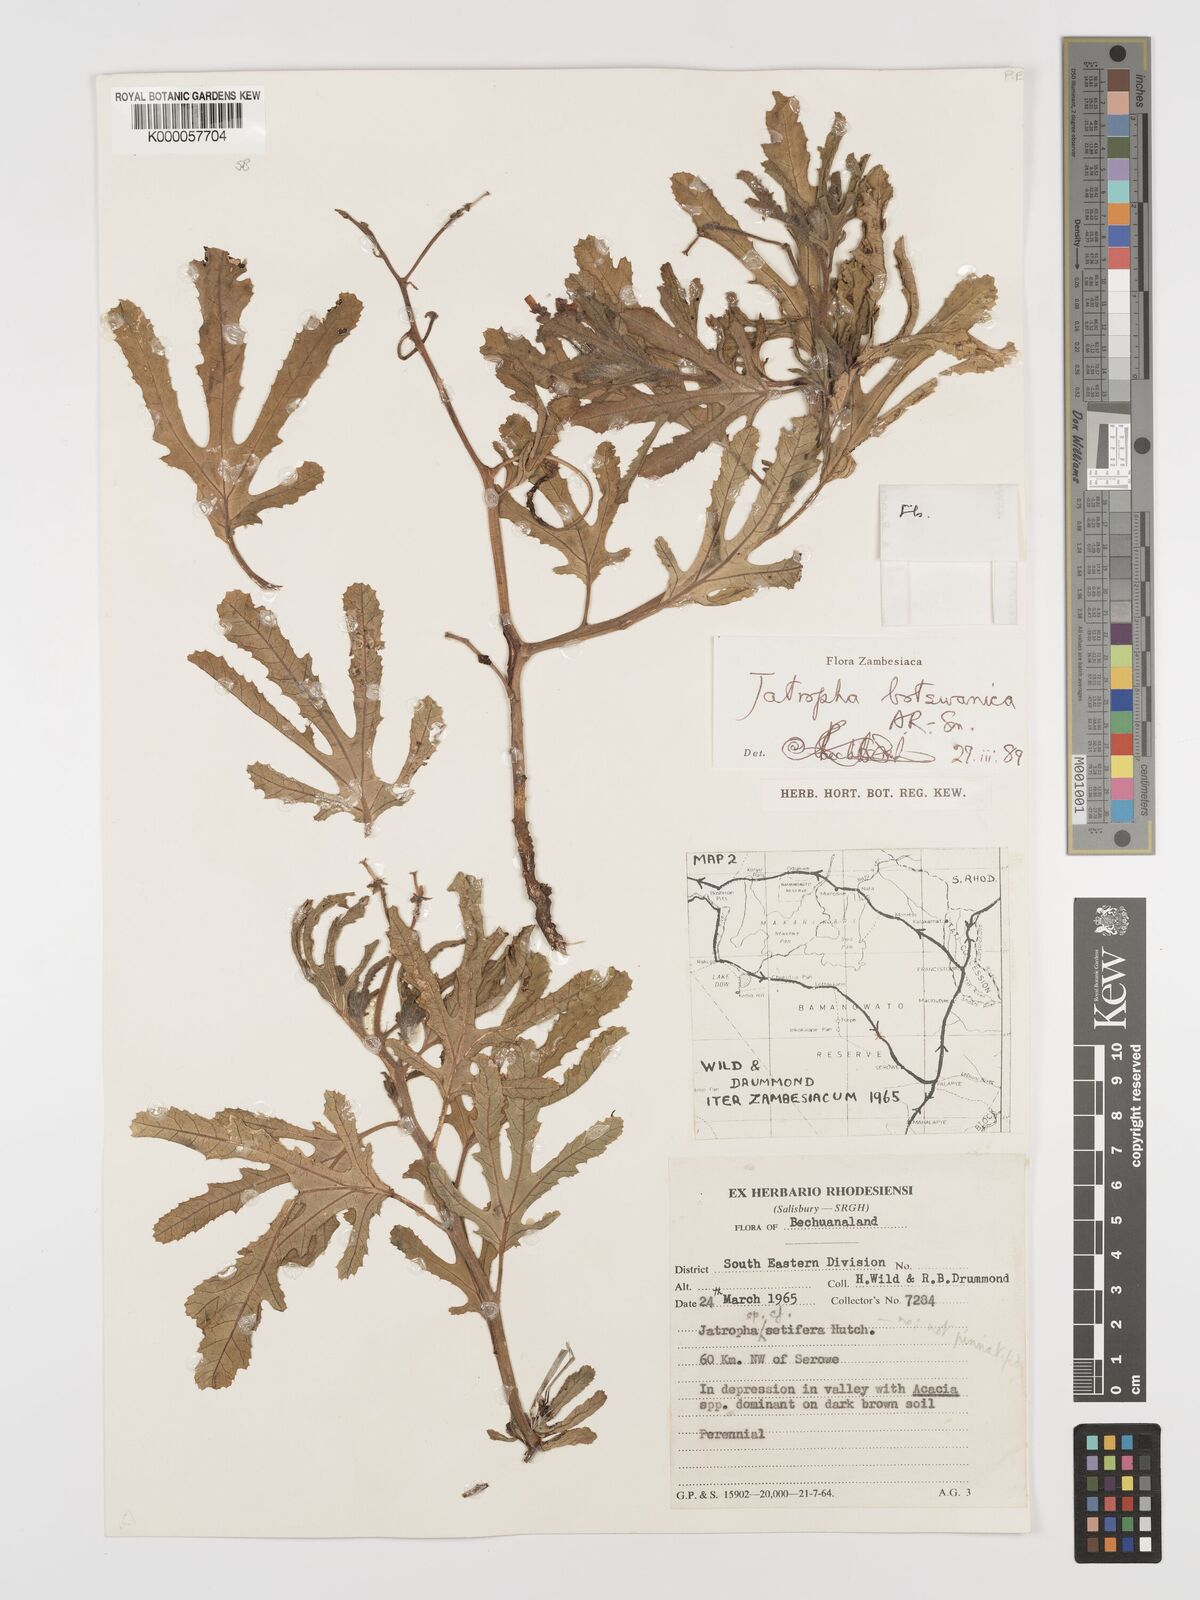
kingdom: Plantae
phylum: Tracheophyta
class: Magnoliopsida
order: Malpighiales
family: Euphorbiaceae
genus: Jatropha
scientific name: Jatropha botswanica
